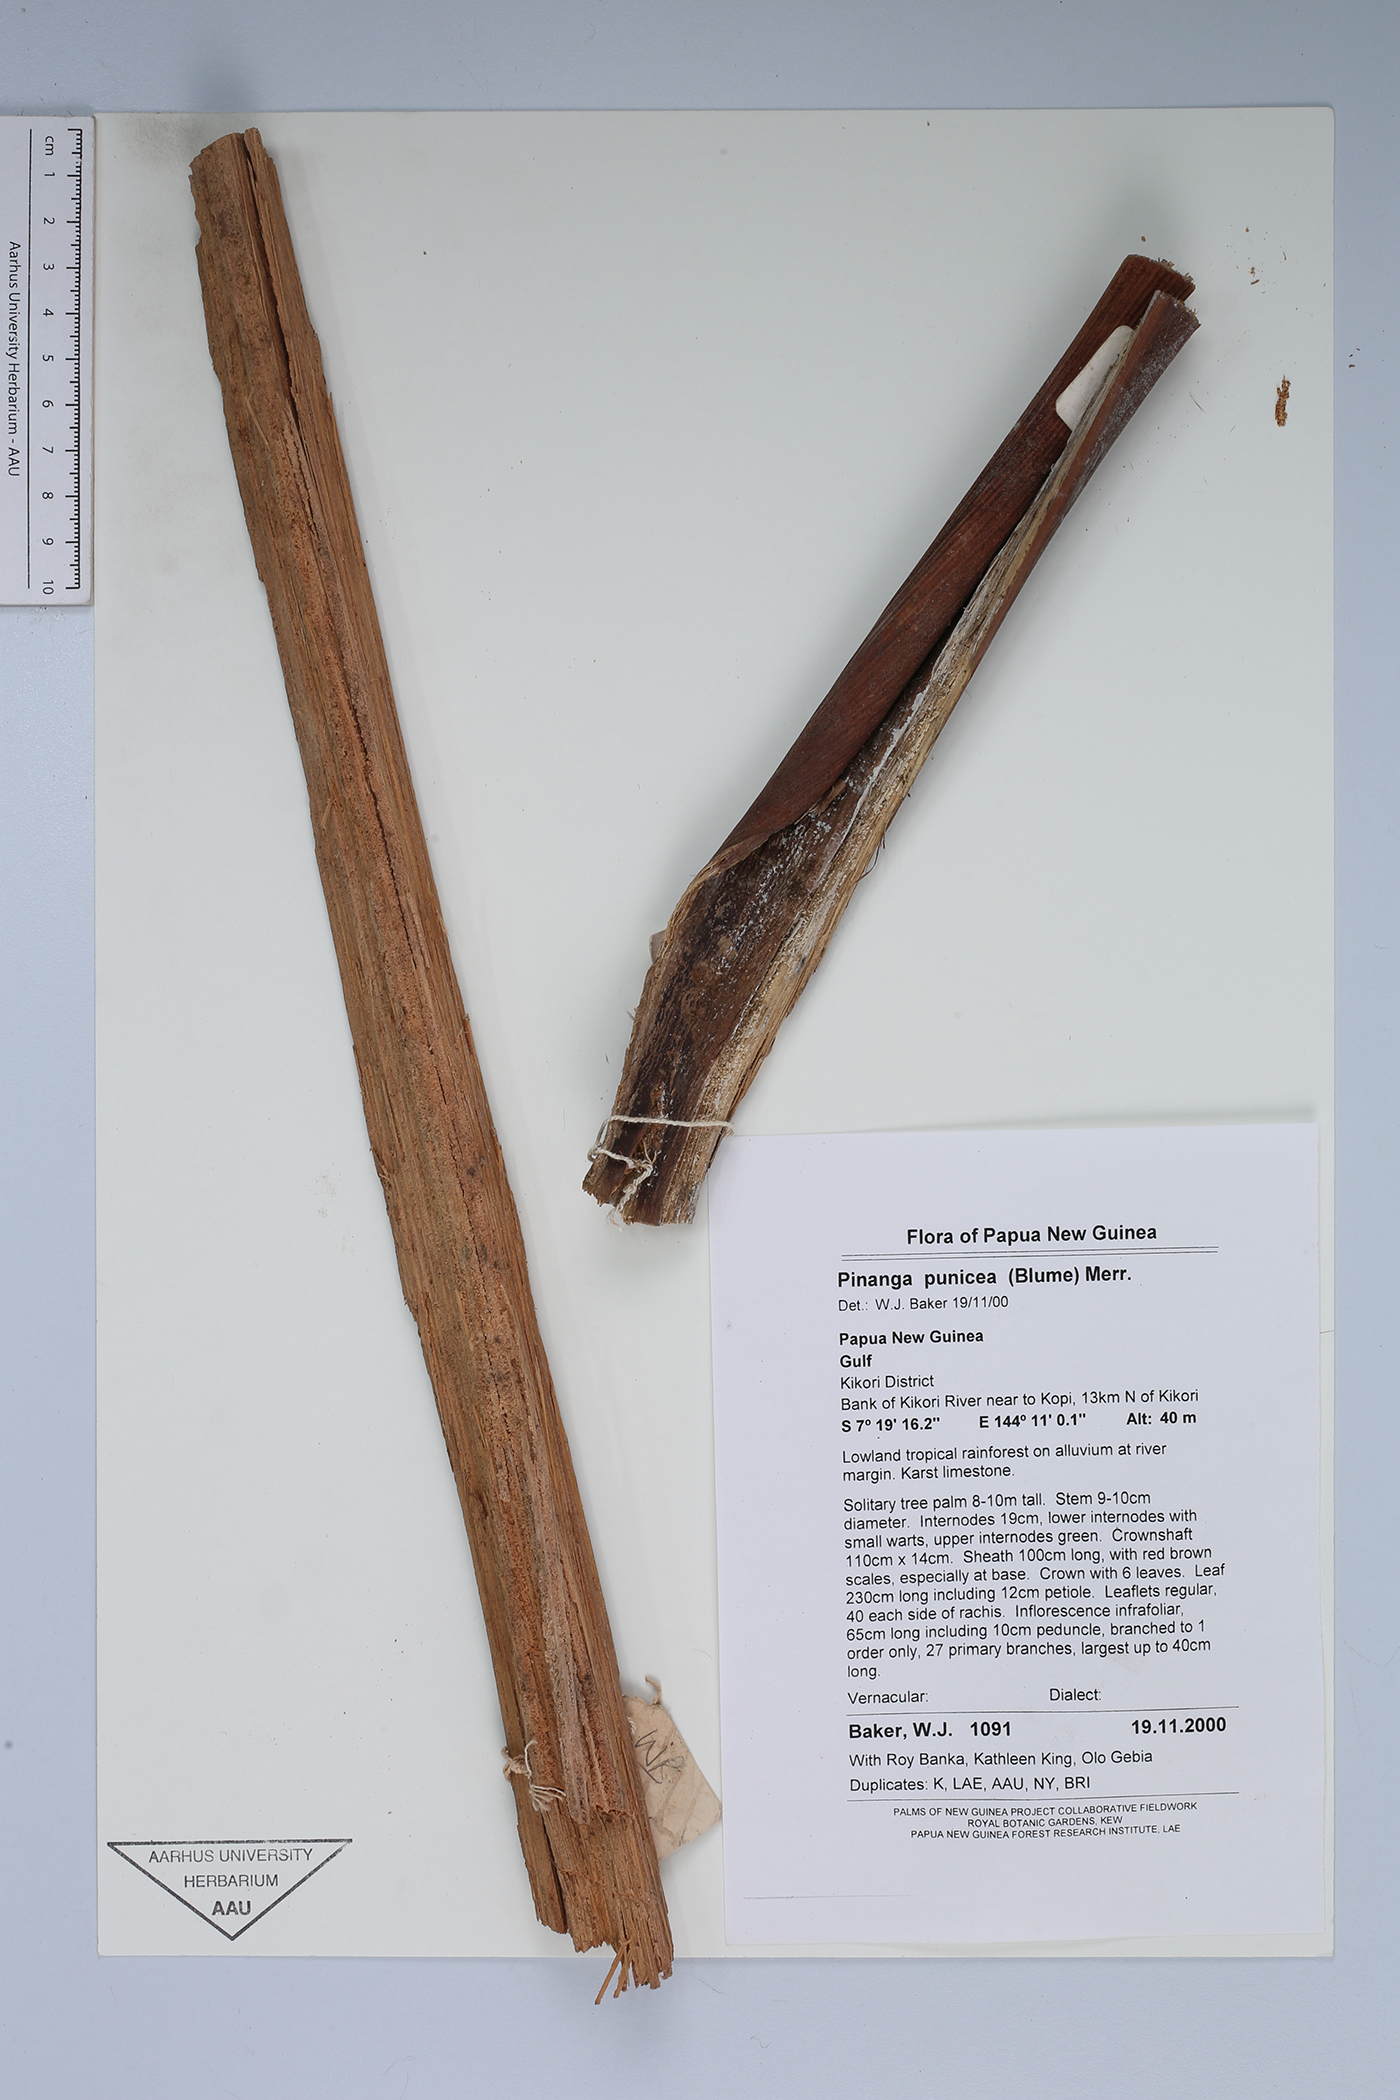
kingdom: Plantae
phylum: Tracheophyta
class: Liliopsida
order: Arecales
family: Arecaceae
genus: Pinanga
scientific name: Pinanga rumphiana
